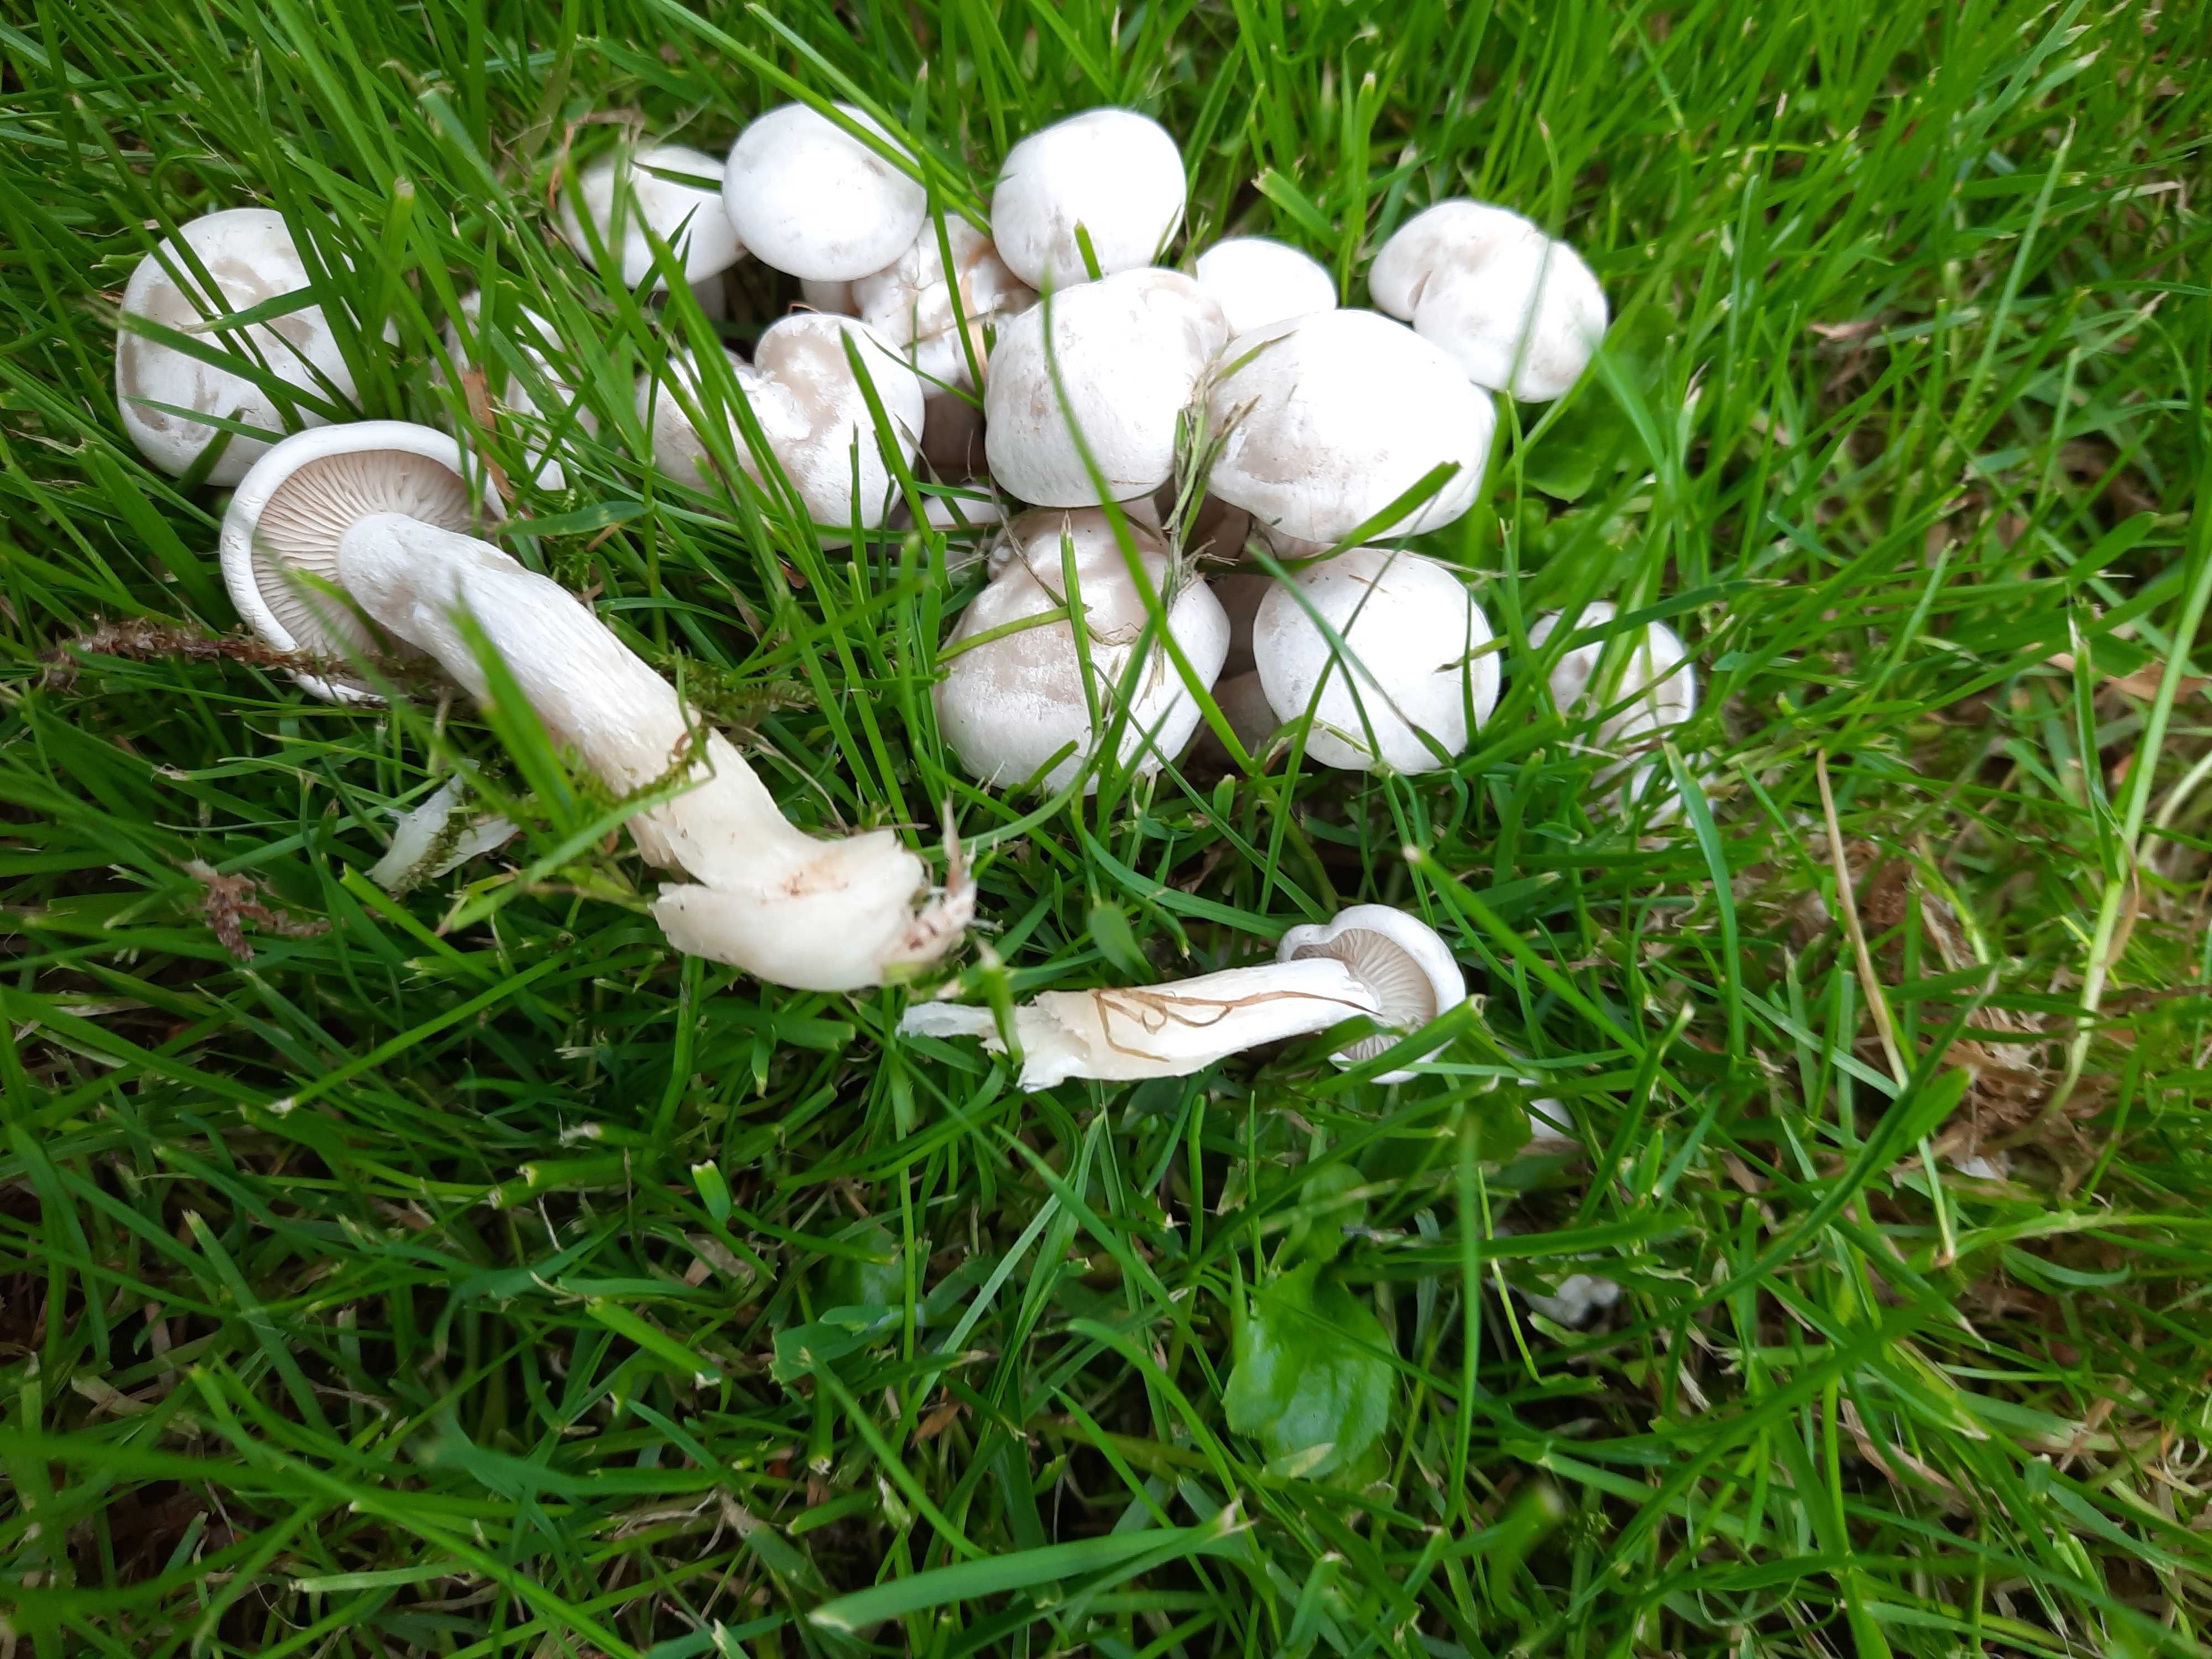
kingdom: Fungi
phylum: Basidiomycota
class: Agaricomycetes
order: Agaricales
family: Tricholomataceae
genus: Leucocybe
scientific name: Leucocybe connata
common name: knippe-tragthat
